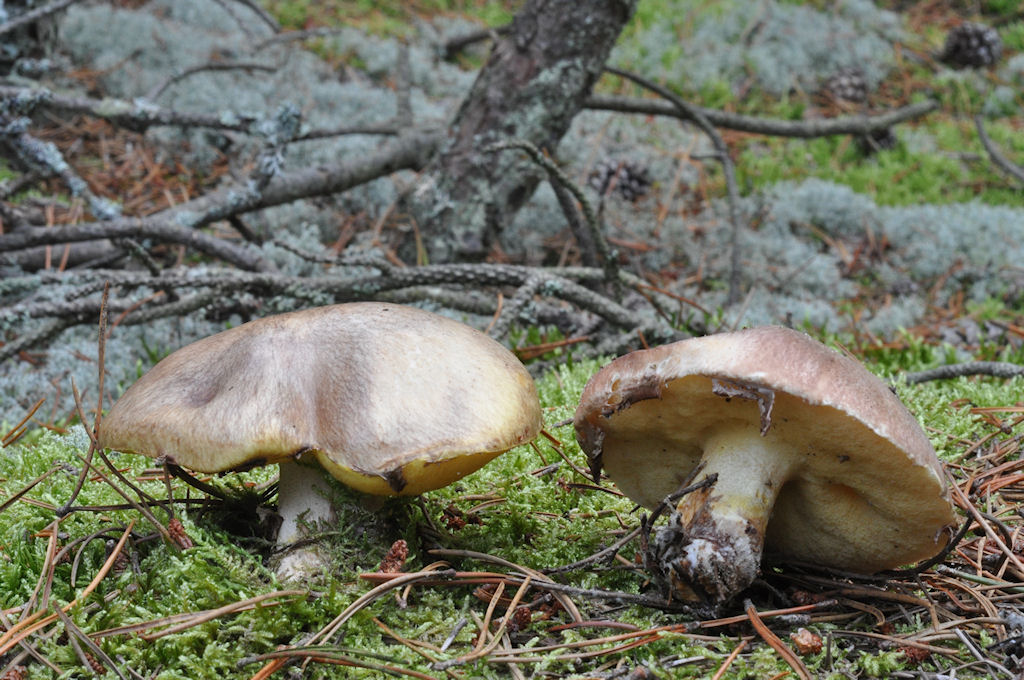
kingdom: Fungi
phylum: Basidiomycota
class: Agaricomycetes
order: Boletales
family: Suillaceae
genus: Suillus
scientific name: Suillus luteus
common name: brungul slimrørhat
